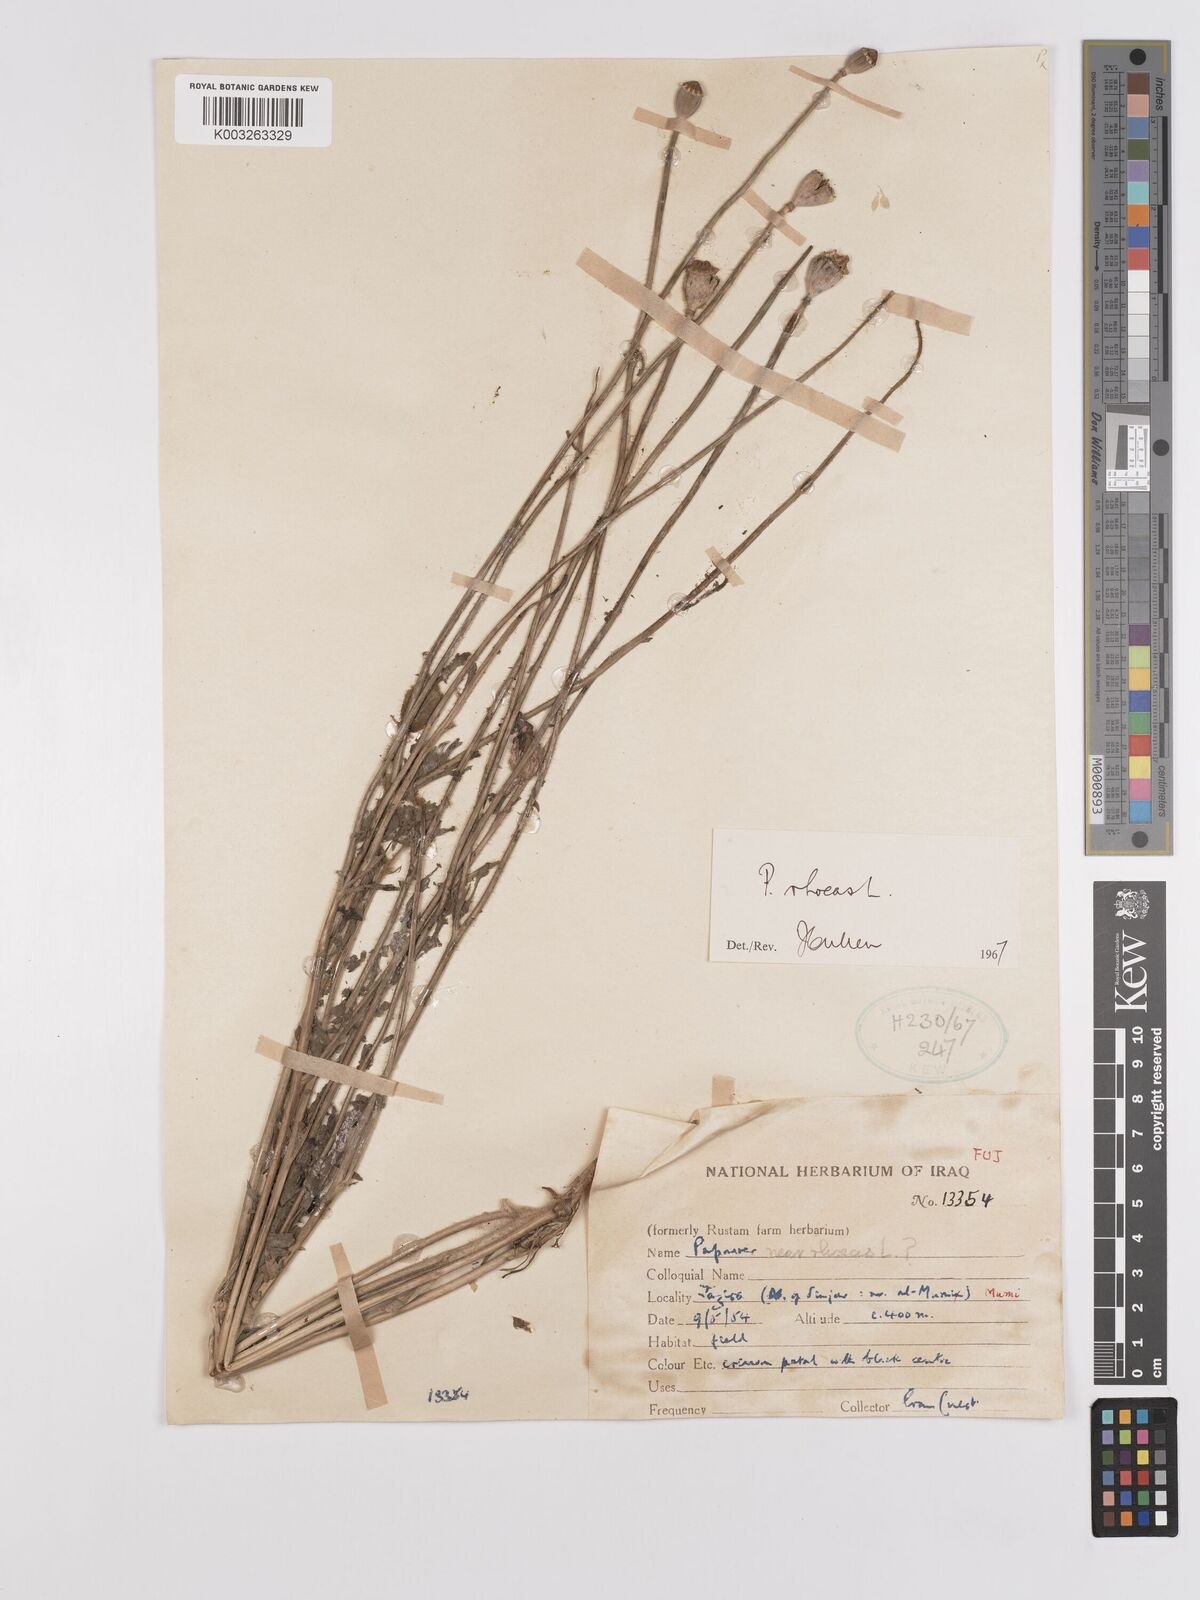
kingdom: Plantae
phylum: Tracheophyta
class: Magnoliopsida
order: Ranunculales
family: Papaveraceae
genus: Papaver
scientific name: Papaver rhoeas
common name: Corn poppy
